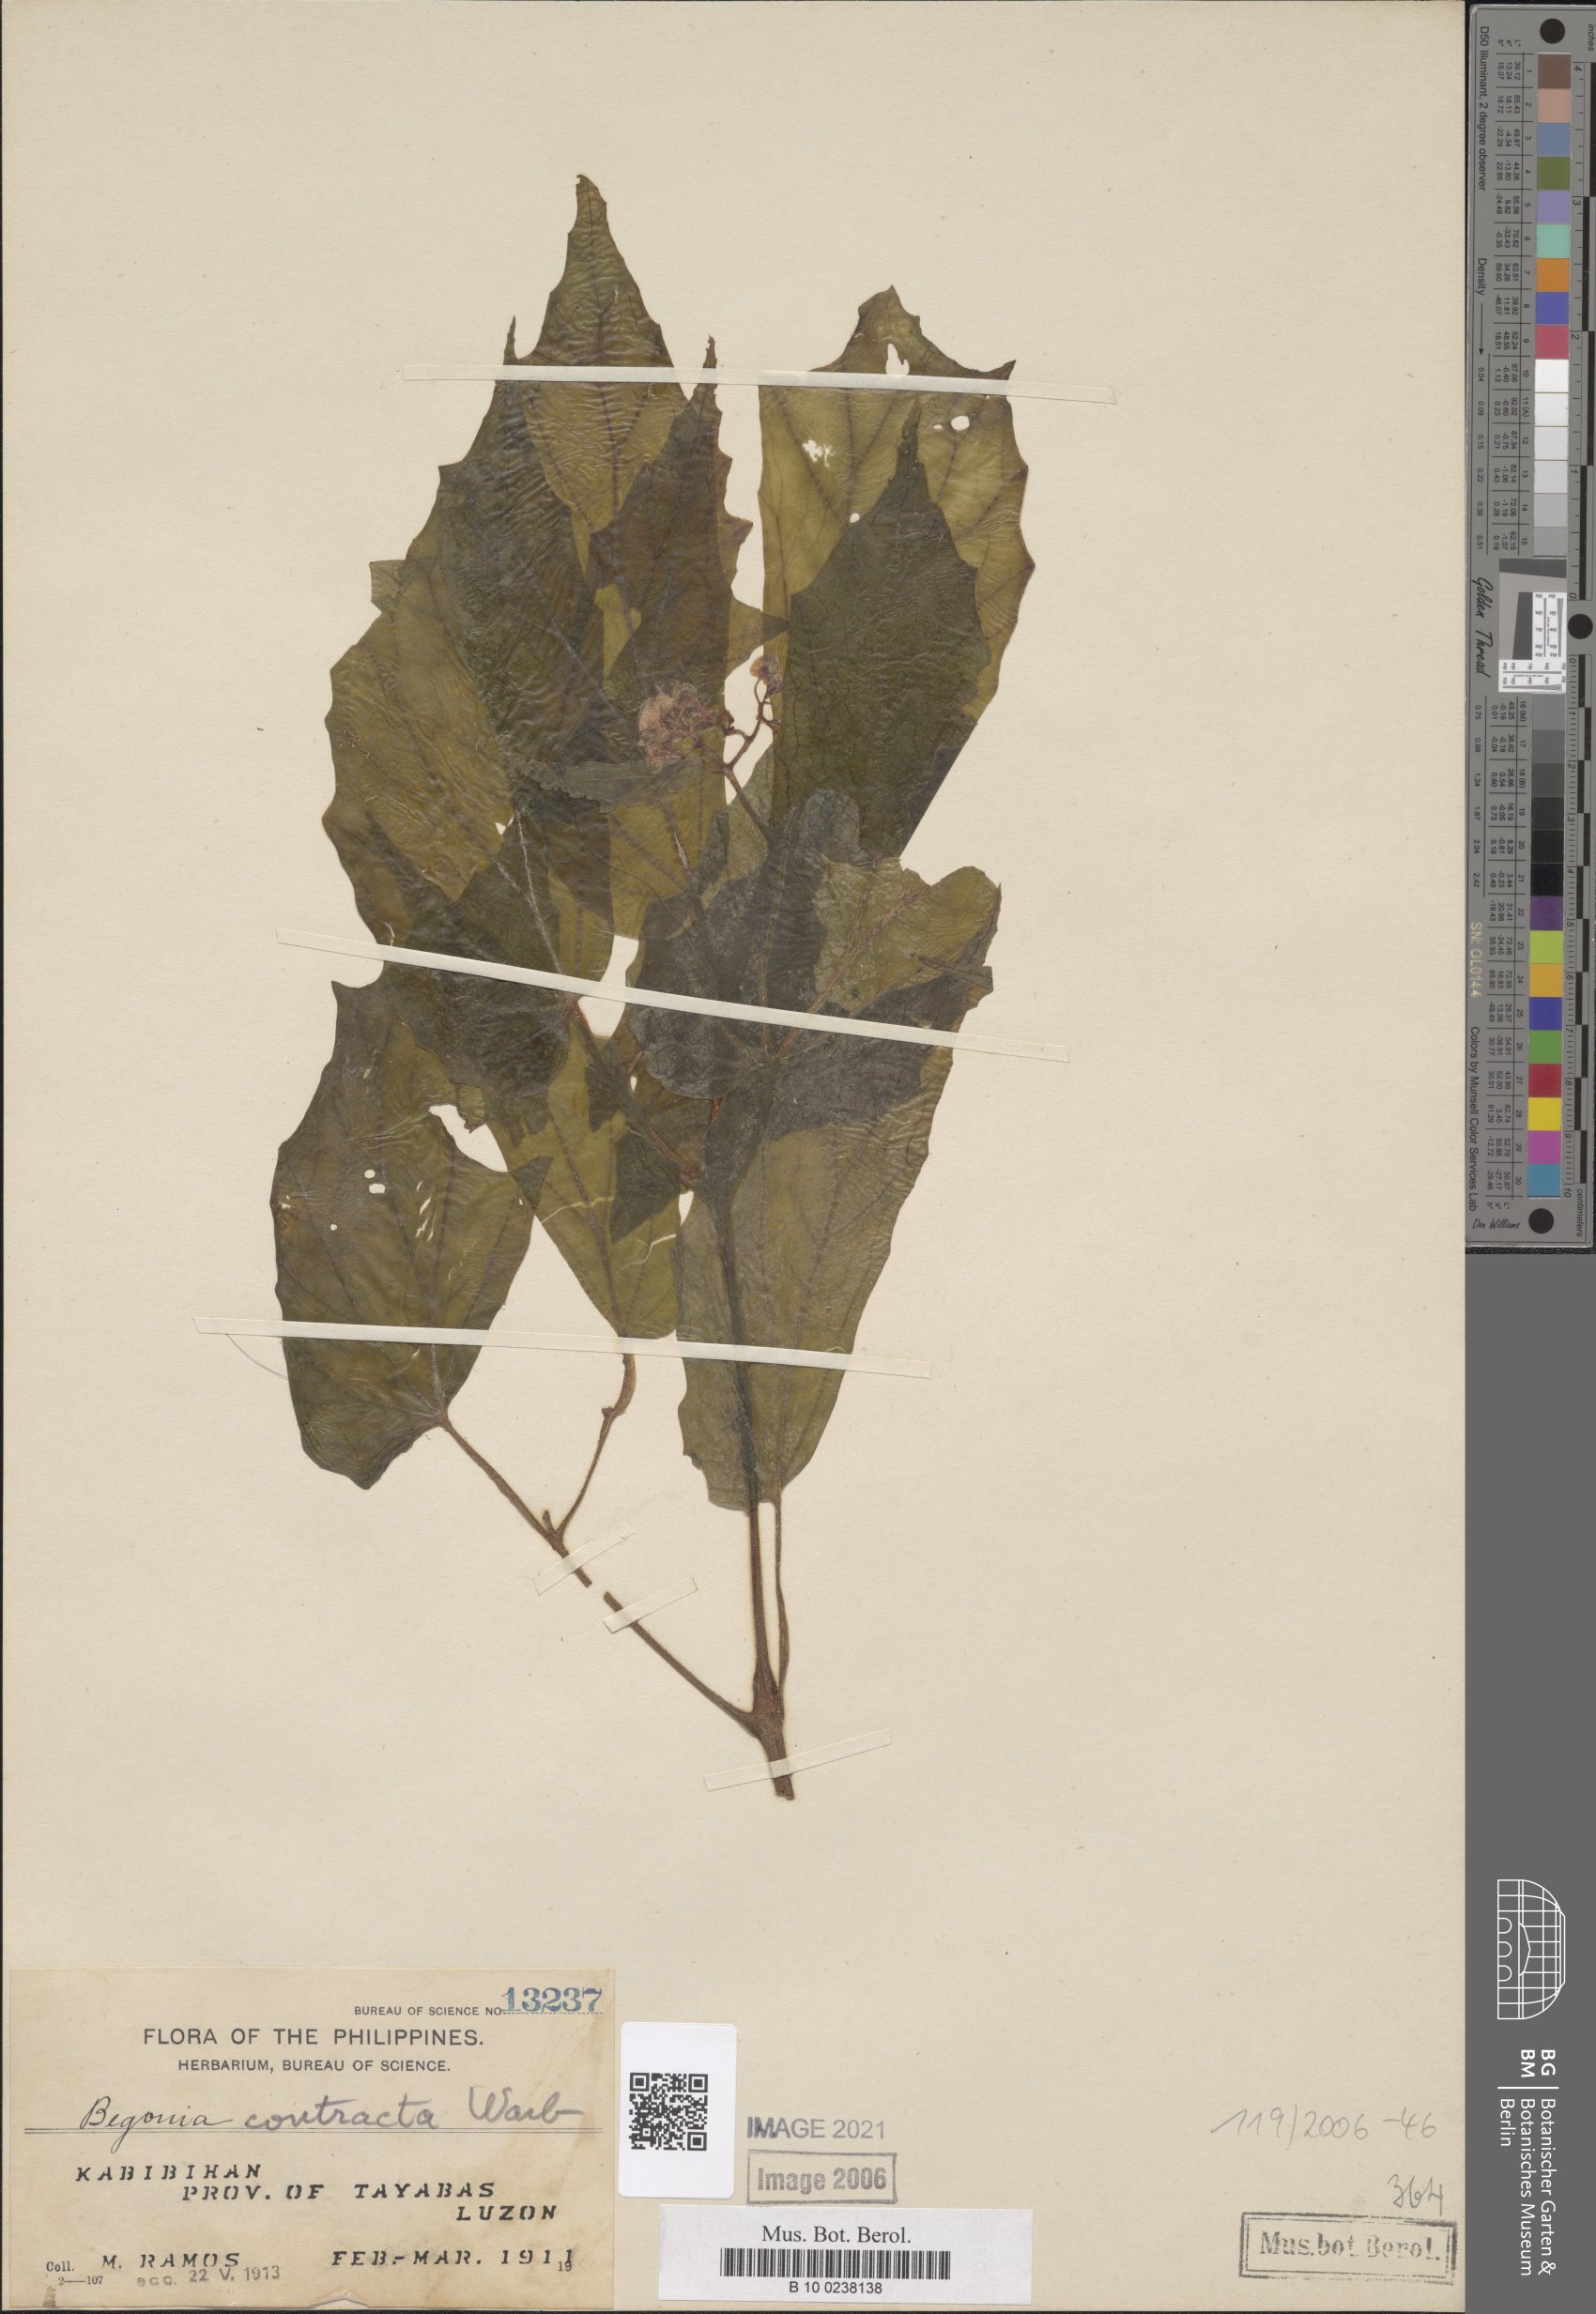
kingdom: Plantae
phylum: Tracheophyta
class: Magnoliopsida
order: Cucurbitales
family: Begoniaceae
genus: Begonia
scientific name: Begonia contracta
